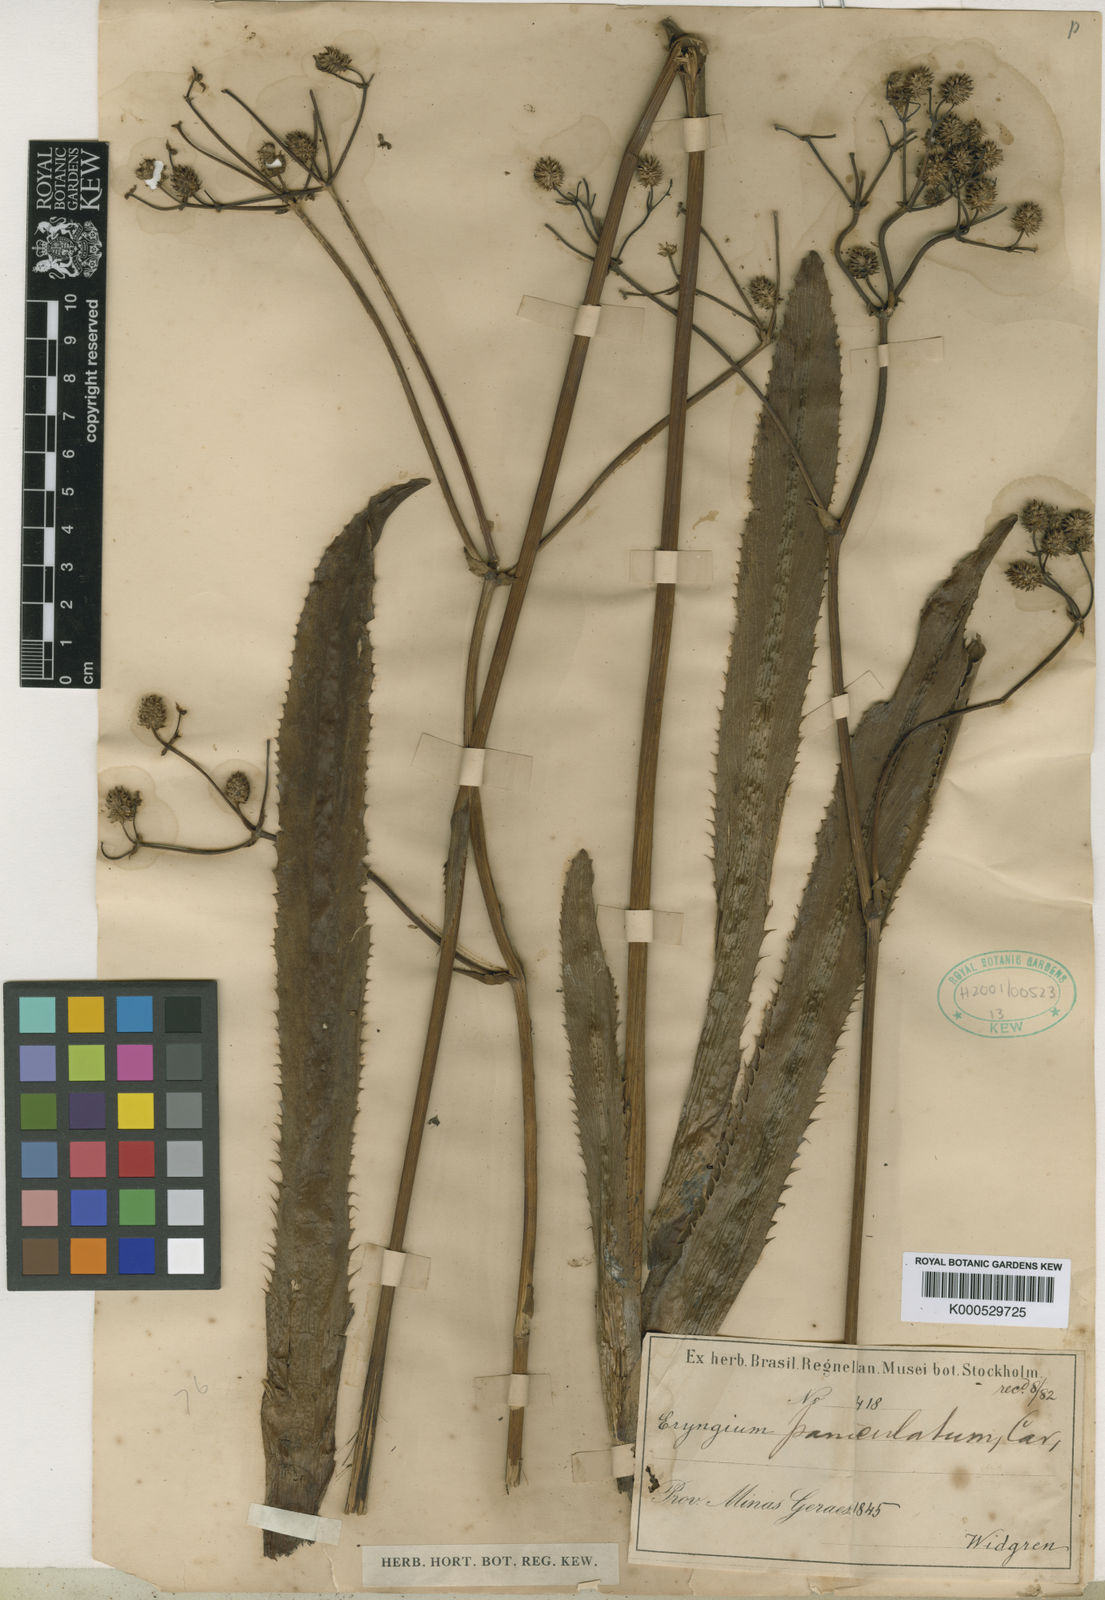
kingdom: Plantae
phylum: Tracheophyta
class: Magnoliopsida
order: Apiales
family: Apiaceae
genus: Eryngium
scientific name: Eryngium floribundum
